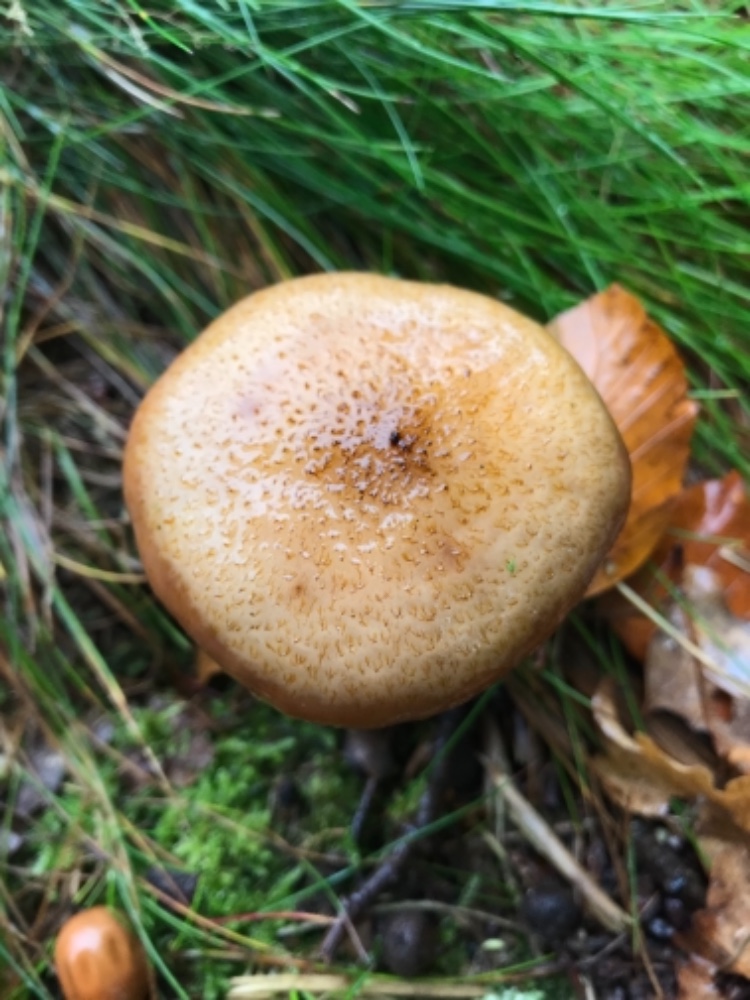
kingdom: Fungi
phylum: Basidiomycota
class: Agaricomycetes
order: Agaricales
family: Physalacriaceae
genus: Armillaria
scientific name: Armillaria lutea
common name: køllestokket honningsvamp
